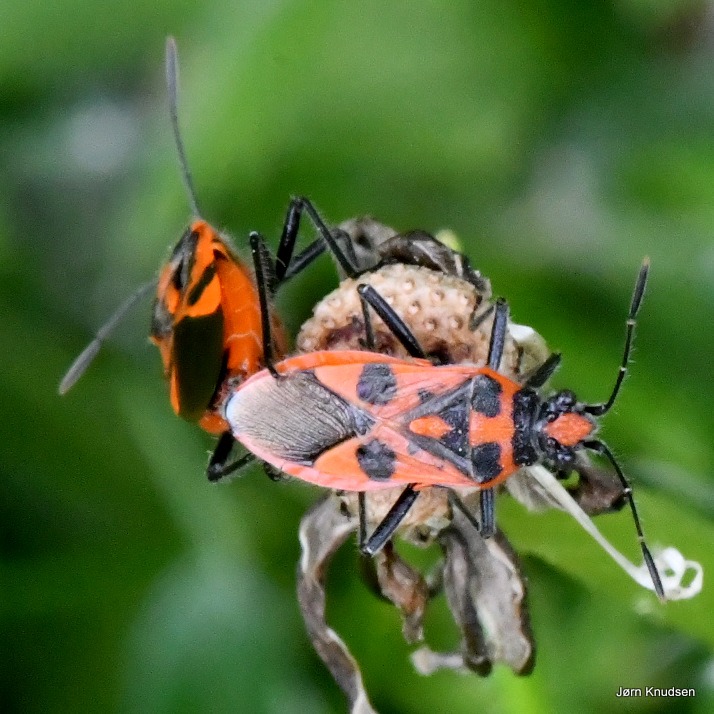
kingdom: Animalia
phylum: Arthropoda
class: Insecta
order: Hemiptera
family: Rhopalidae
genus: Corizus
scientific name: Corizus hyoscyami
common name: Rød kanttæge
